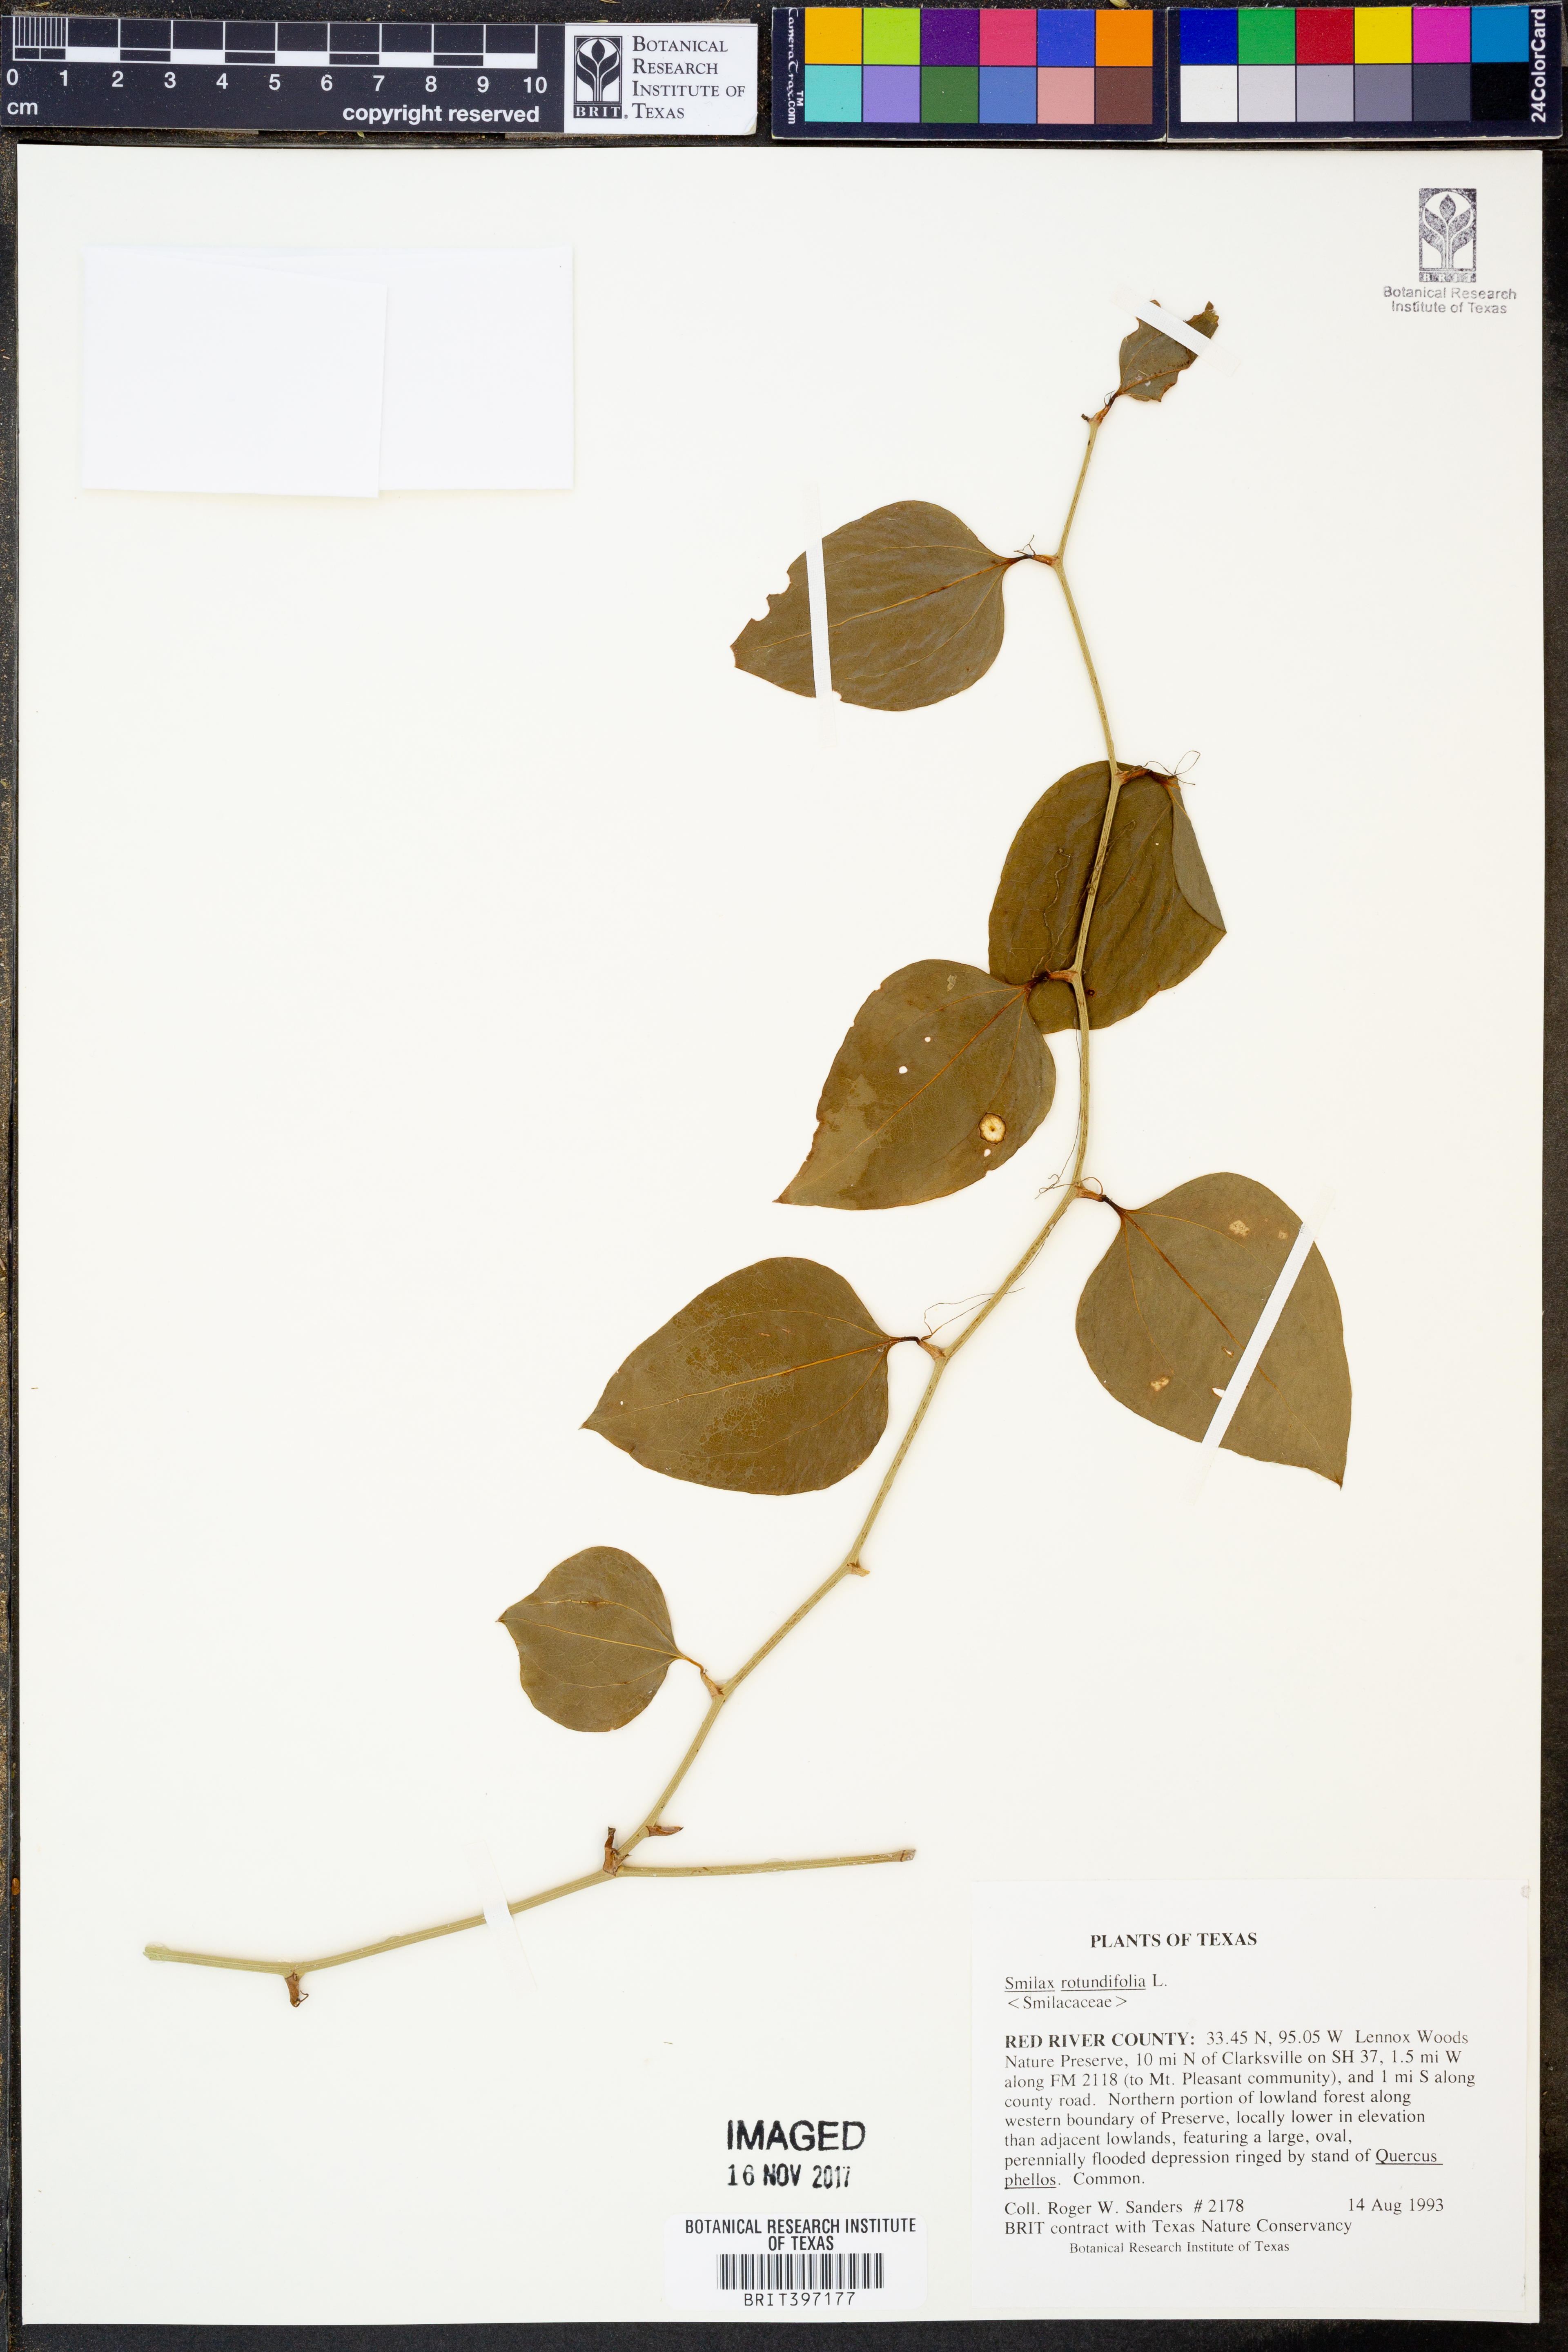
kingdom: Plantae
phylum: Tracheophyta
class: Liliopsida
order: Liliales
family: Smilacaceae
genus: Smilax
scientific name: Smilax rotundifolia
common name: Bullbriar
